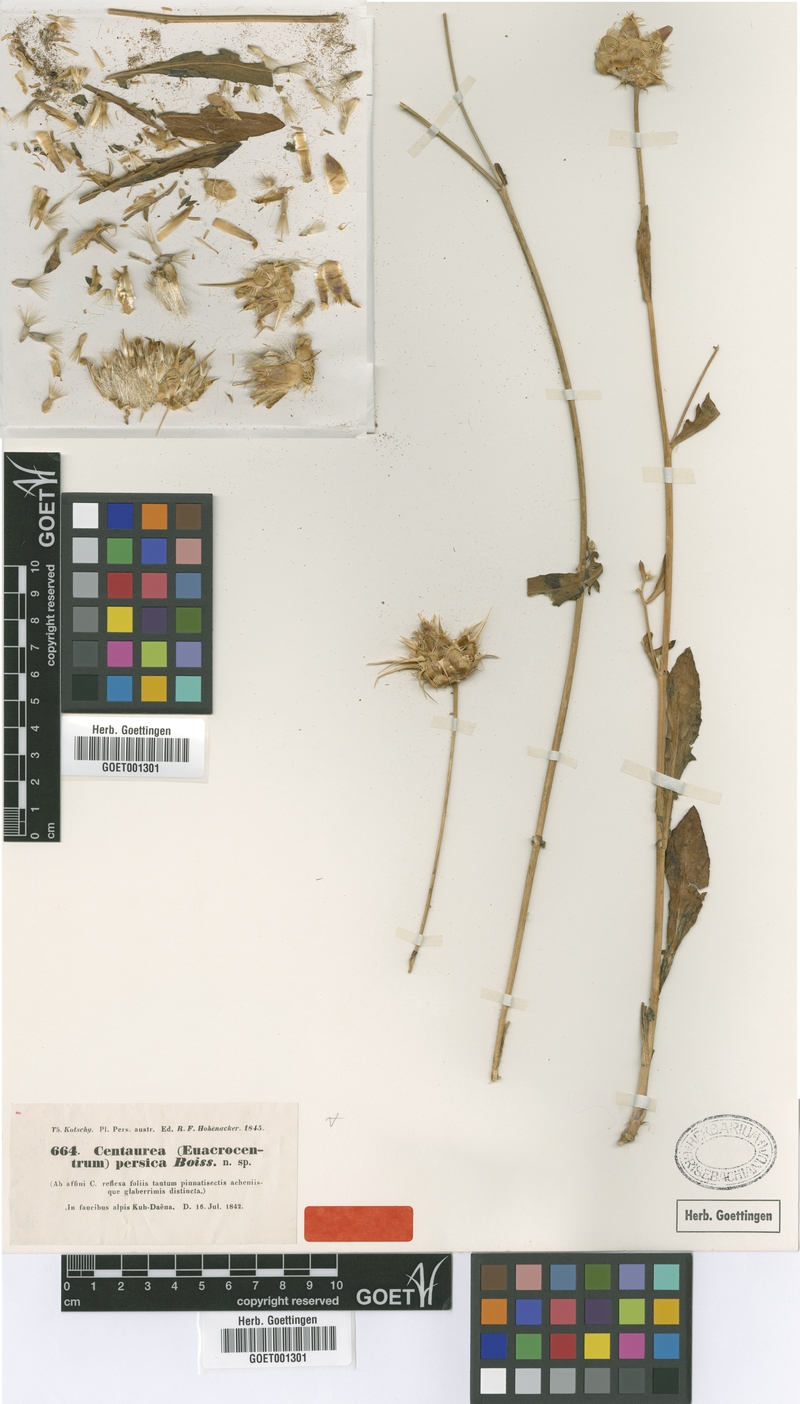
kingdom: Plantae
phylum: Tracheophyta
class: Magnoliopsida
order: Asterales
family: Asteraceae
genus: Centaurea
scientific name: Centaurea persica
